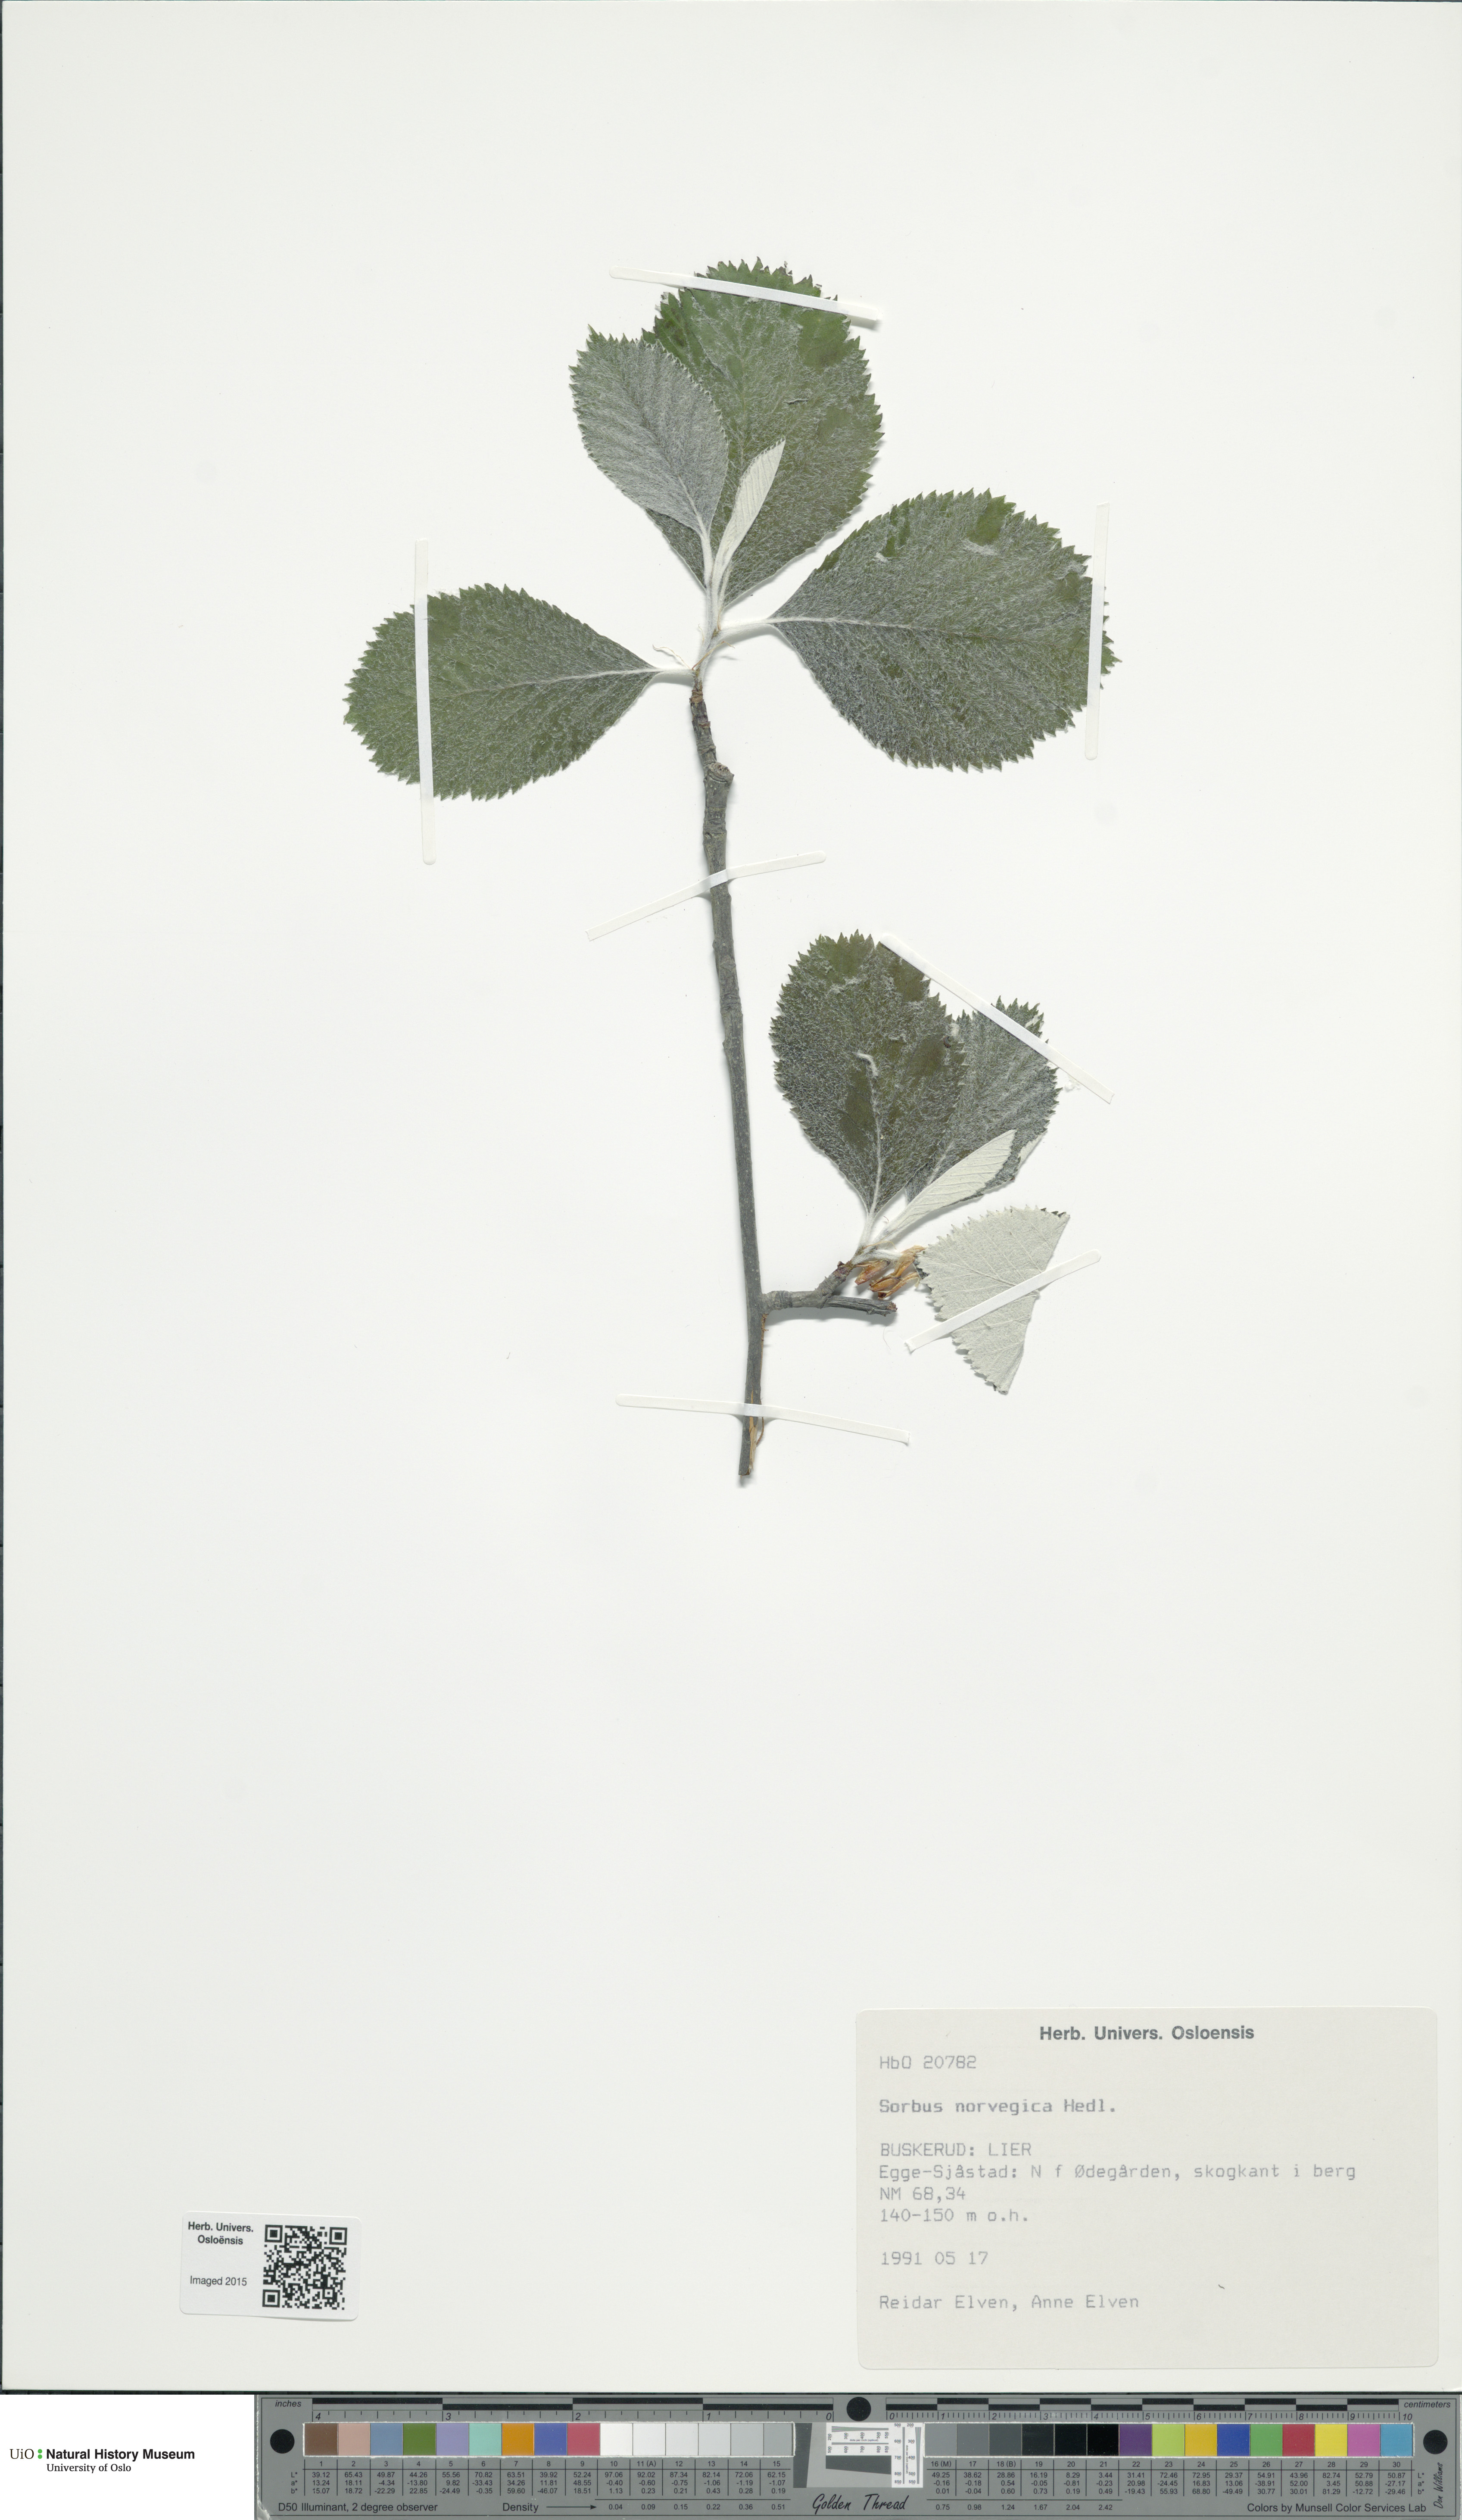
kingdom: Plantae
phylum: Tracheophyta
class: Magnoliopsida
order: Rosales
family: Rosaceae
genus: Aria
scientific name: Aria obtusifolia
